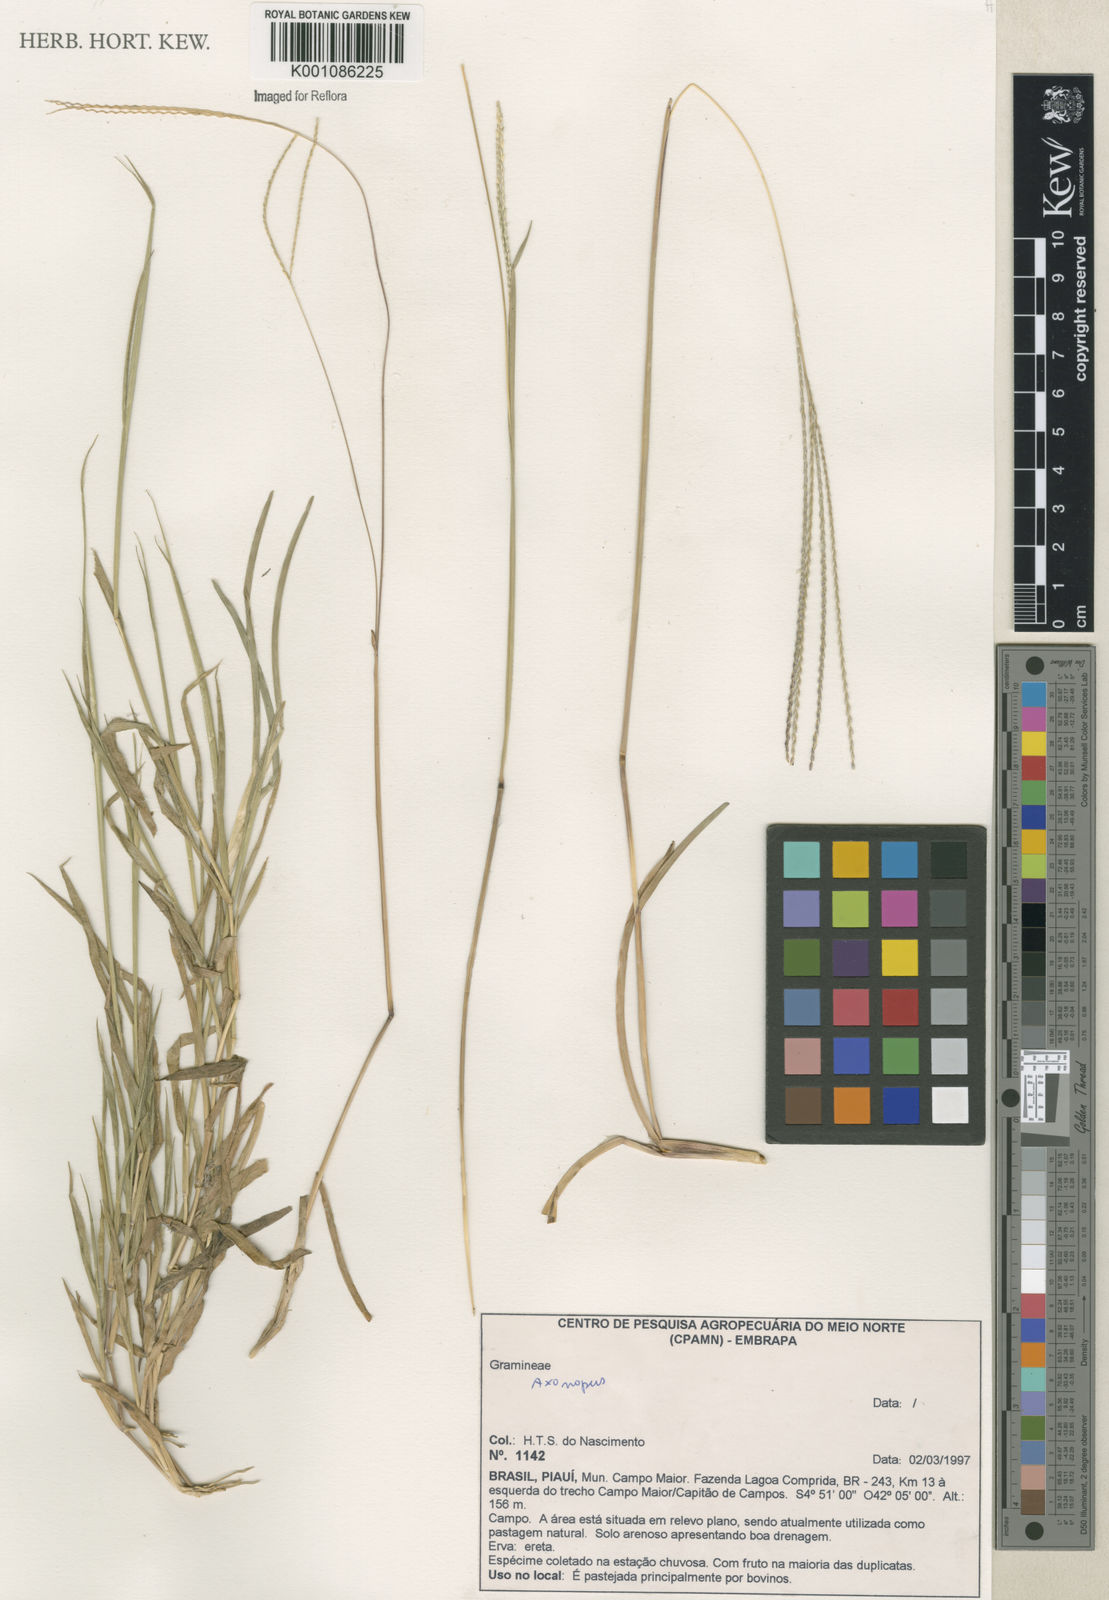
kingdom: Plantae
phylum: Tracheophyta
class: Liliopsida
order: Poales
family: Poaceae
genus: Axonopus
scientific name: Axonopus
